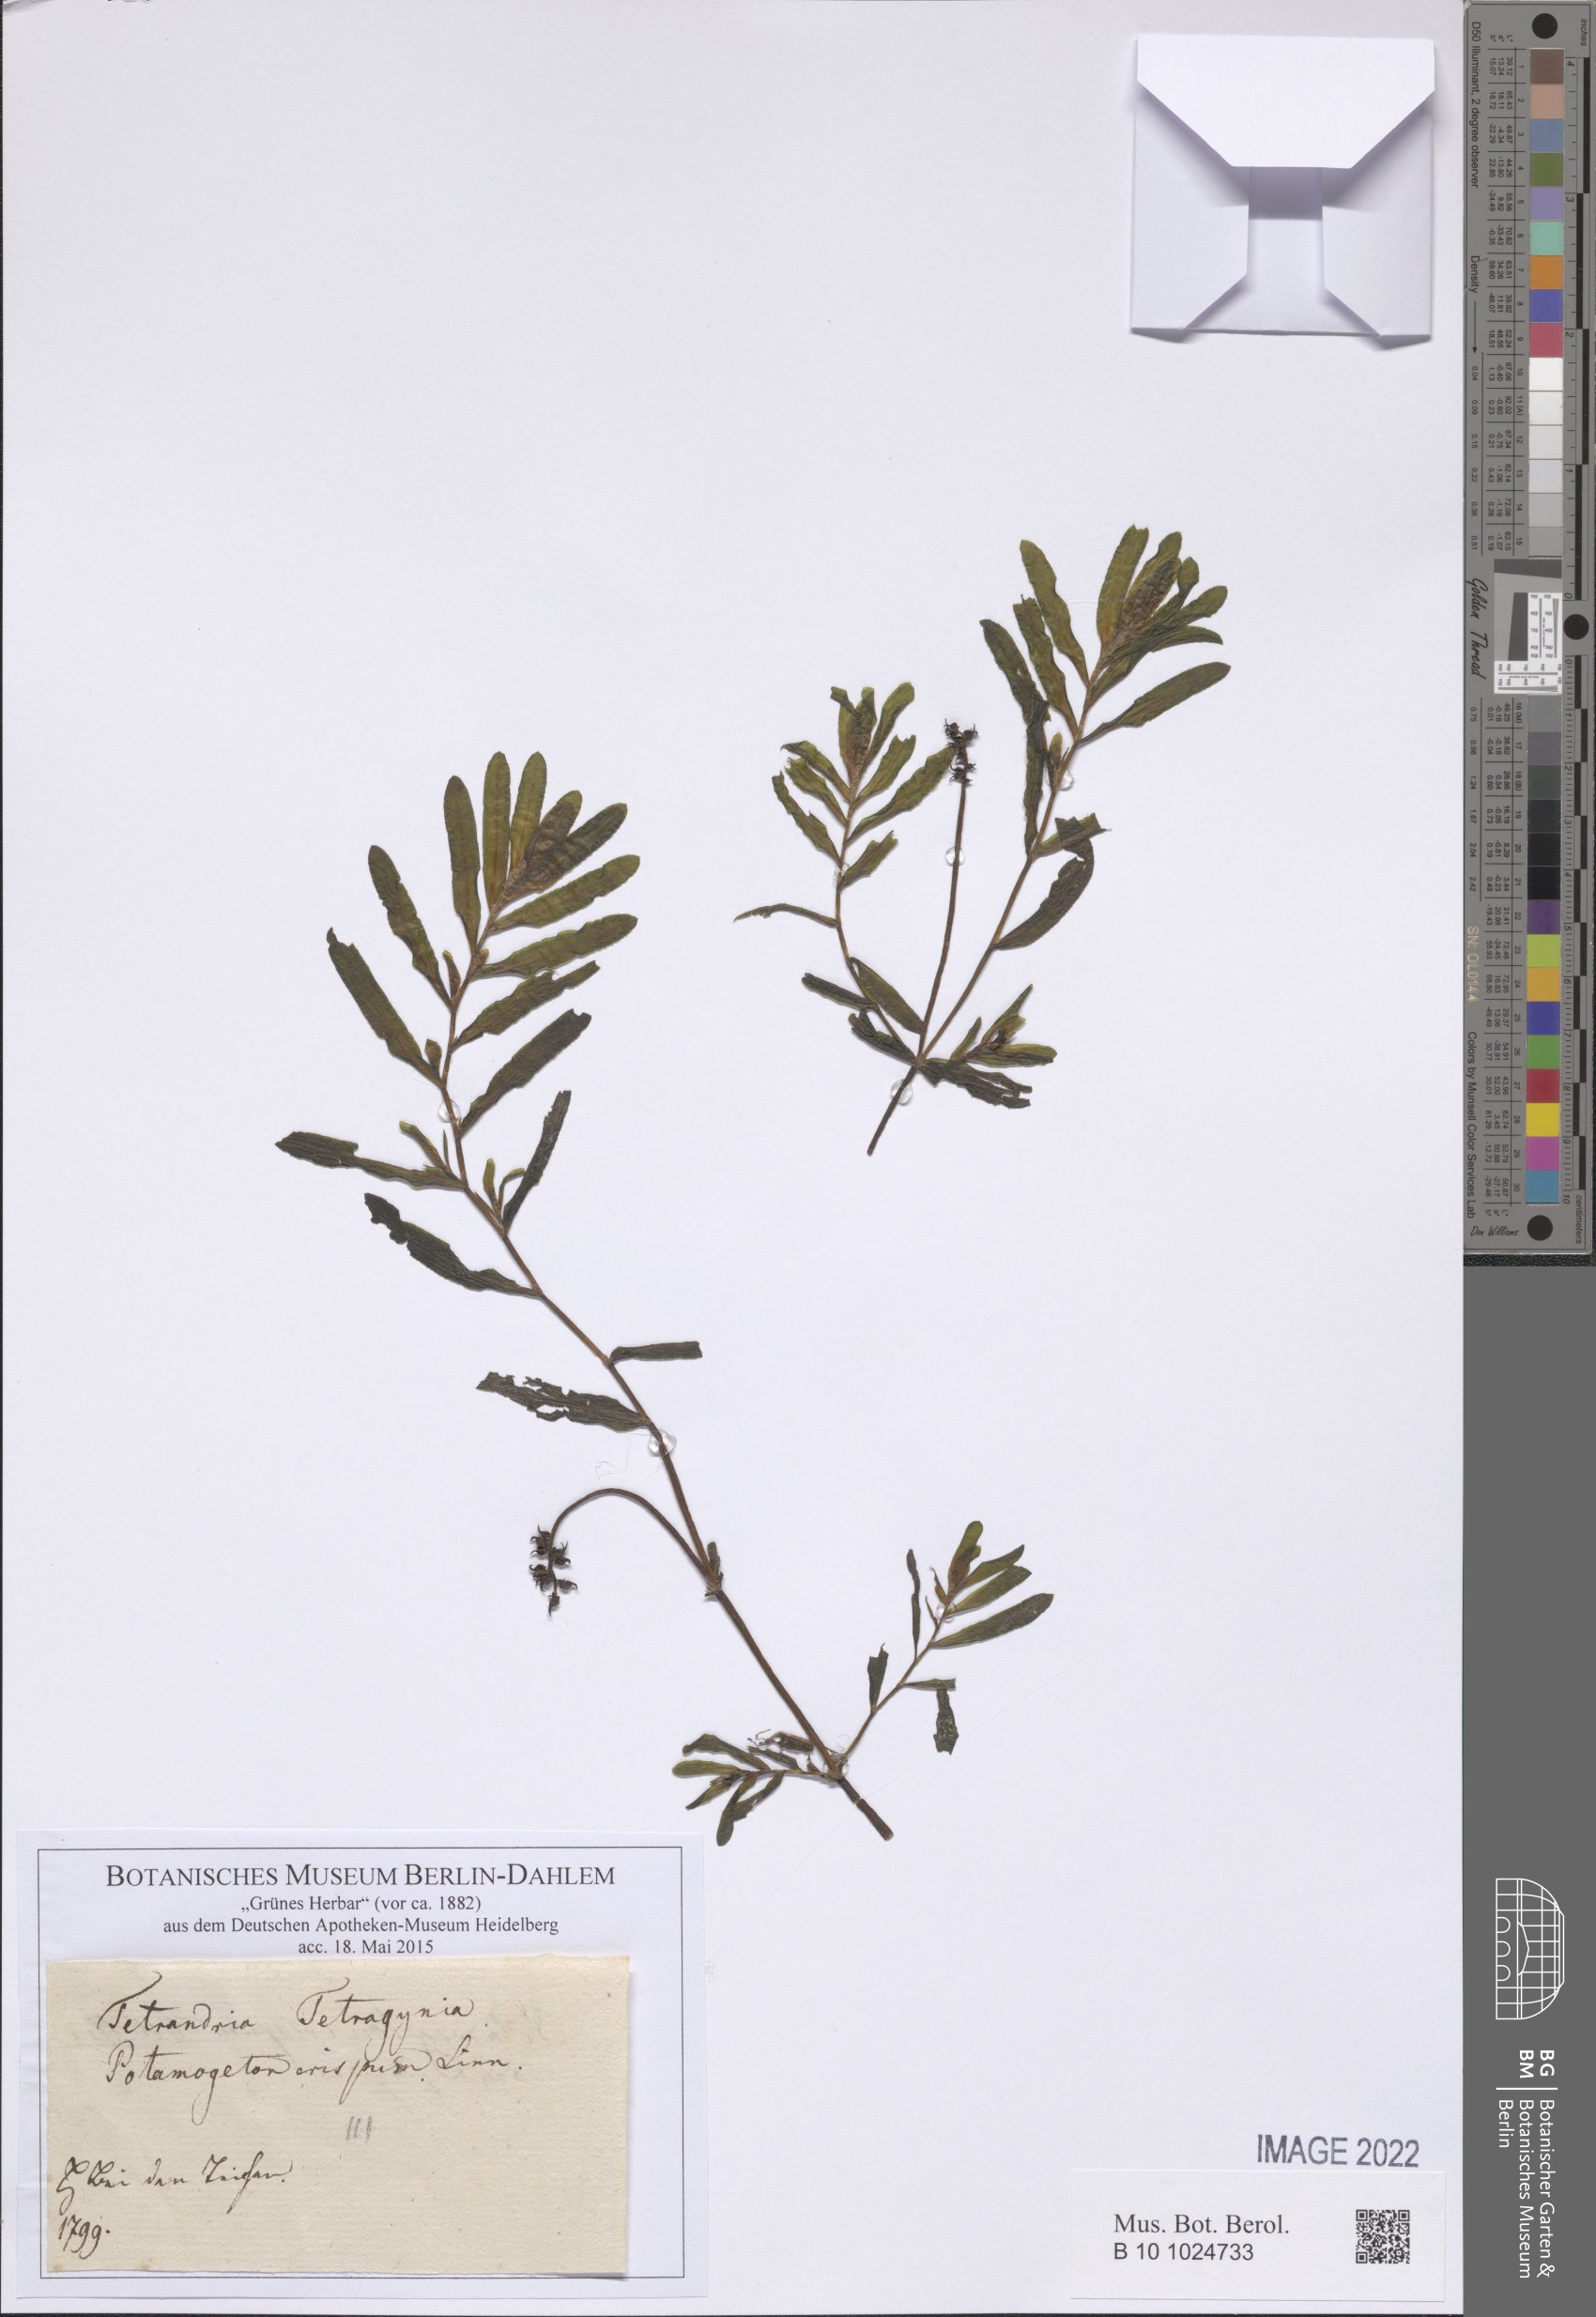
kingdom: Plantae
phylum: Tracheophyta
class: Liliopsida
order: Alismatales
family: Potamogetonaceae
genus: Potamogeton
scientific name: Potamogeton crispus
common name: Curled pondweed
